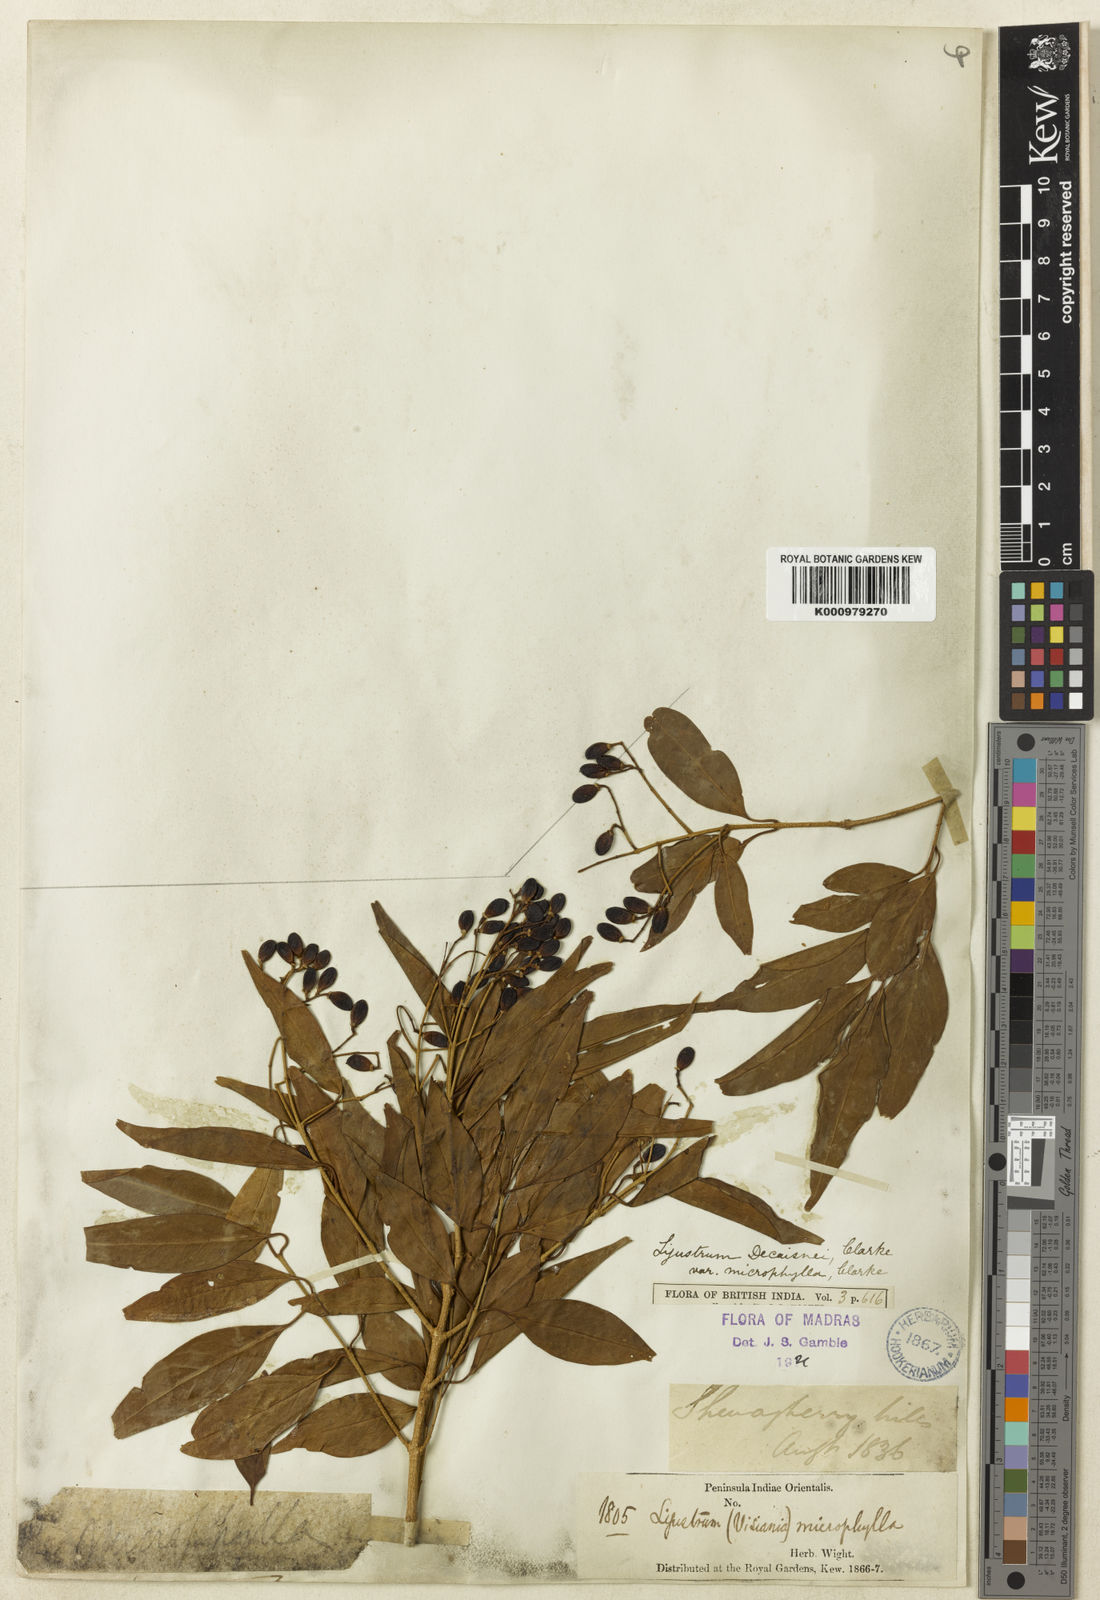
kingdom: Plantae
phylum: Tracheophyta
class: Magnoliopsida
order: Lamiales
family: Oleaceae
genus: Ligustrum
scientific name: Ligustrum robustum
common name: Tree privet
